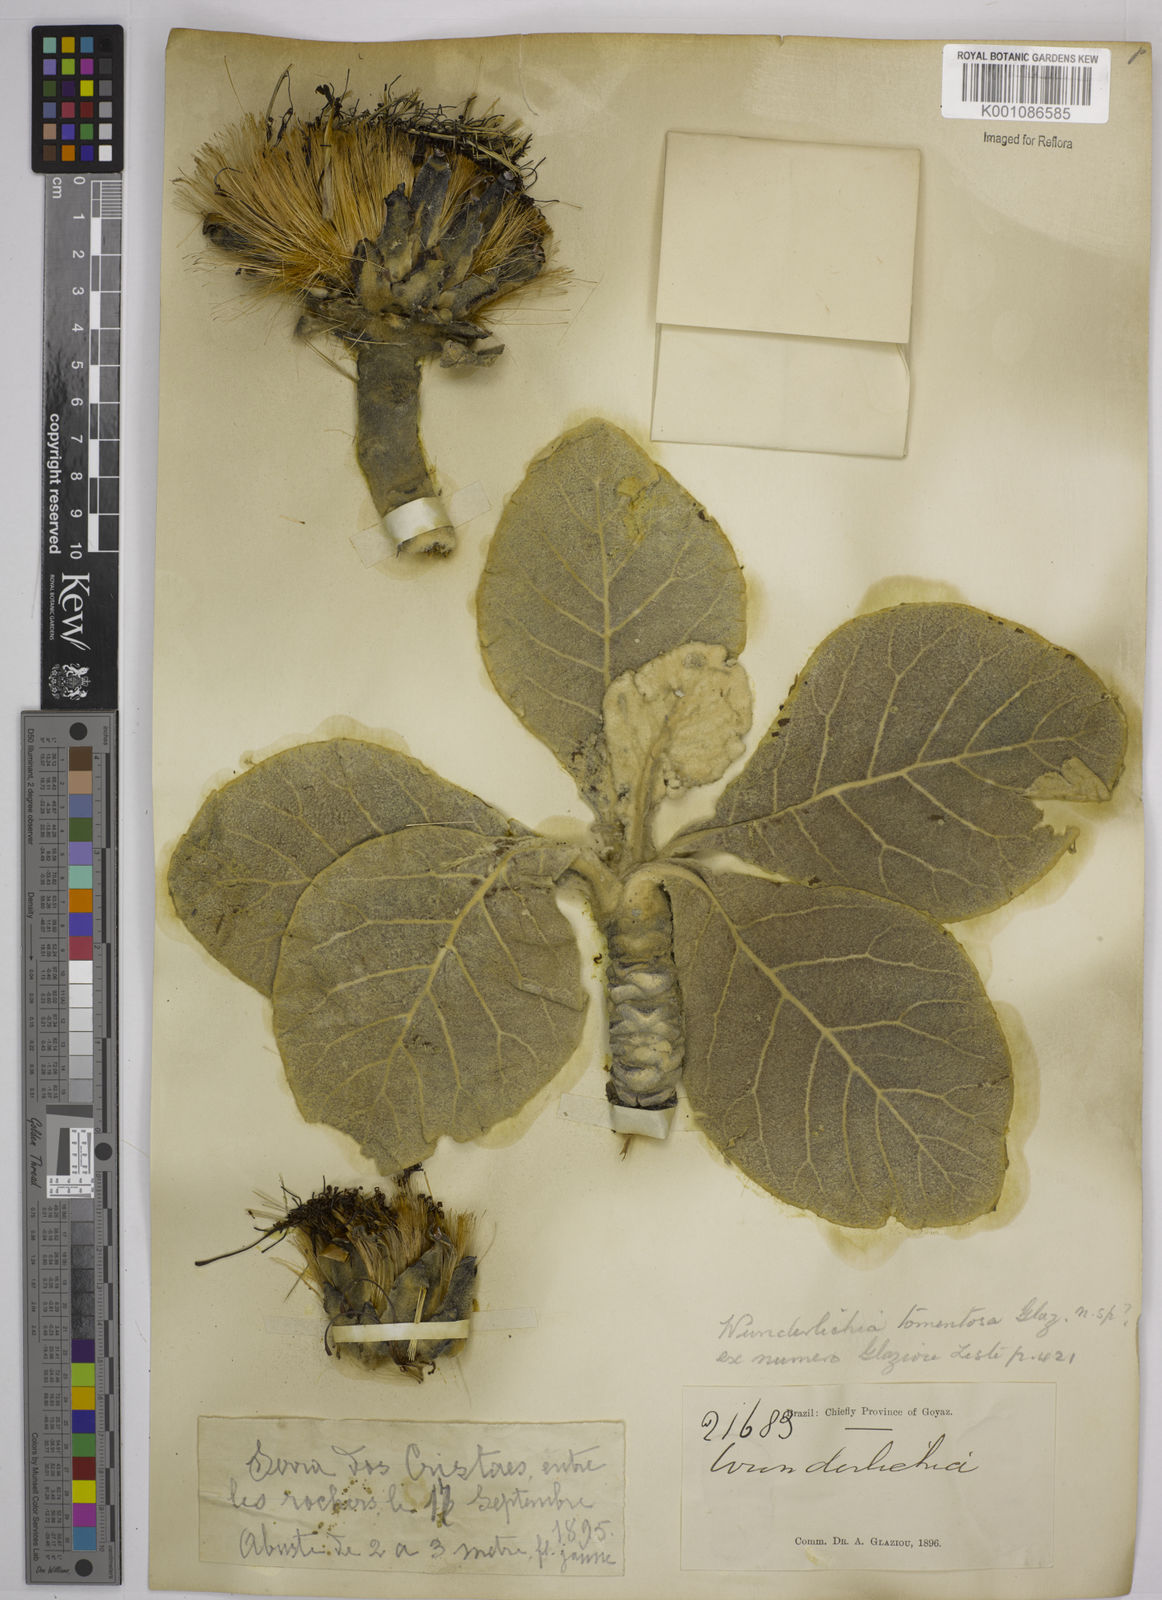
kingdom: Plantae
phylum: Tracheophyta
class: Magnoliopsida
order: Asterales
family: Asteraceae
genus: Wunderlichia
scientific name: Wunderlichia mirabilis
